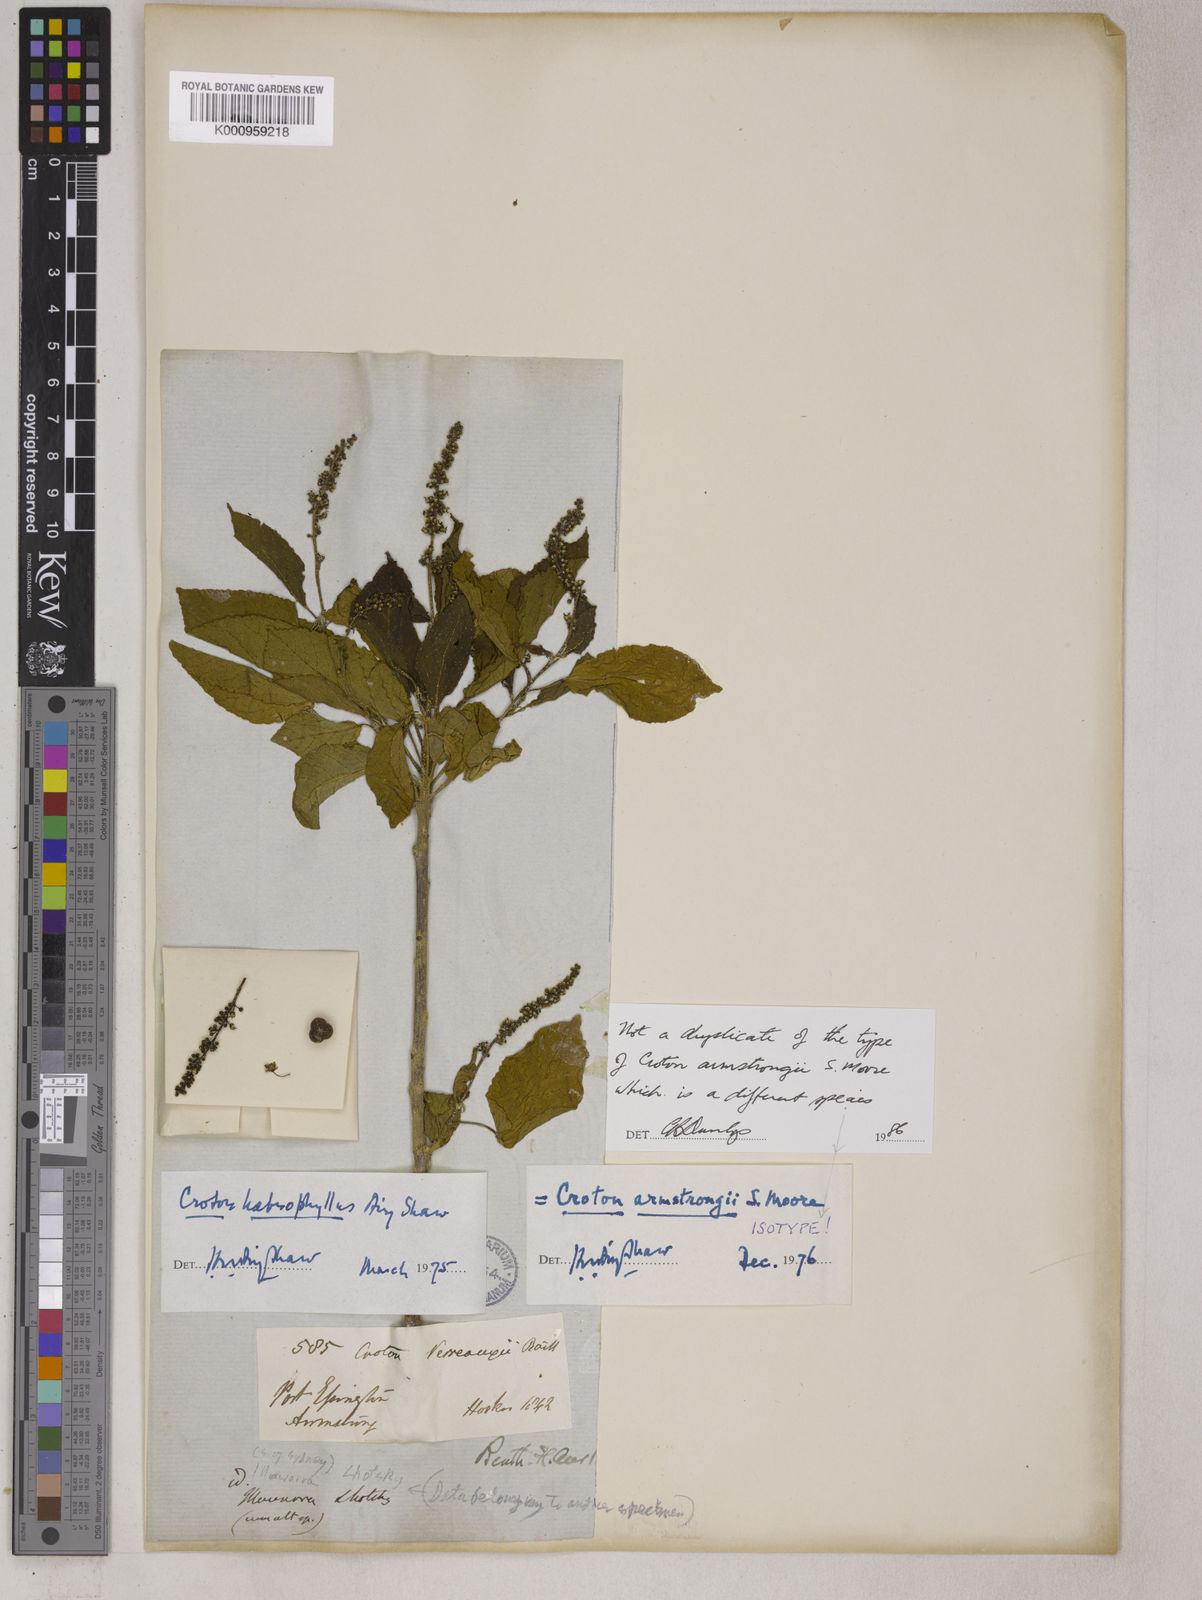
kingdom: Plantae
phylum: Tracheophyta
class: Magnoliopsida
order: Malpighiales
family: Euphorbiaceae
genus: Croton
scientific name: Croton habrophyllus
